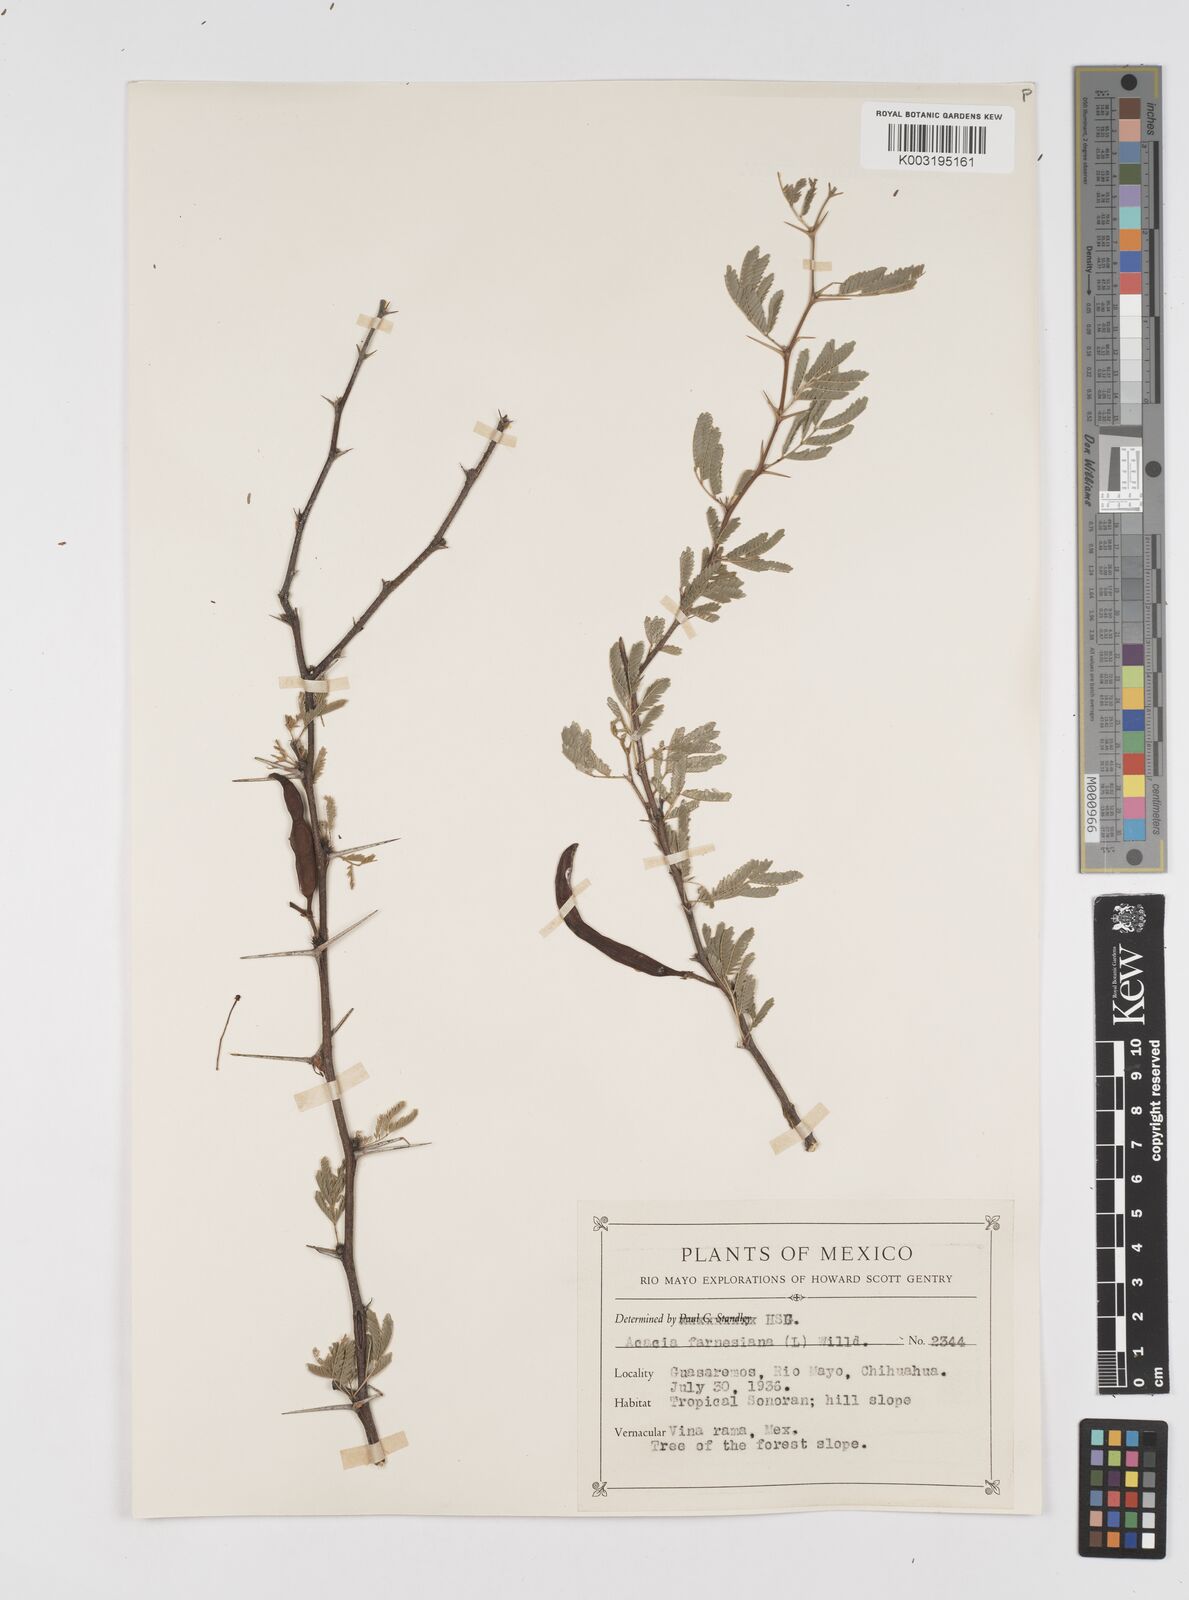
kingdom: Plantae
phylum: Tracheophyta
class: Magnoliopsida
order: Fabales
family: Fabaceae
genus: Vachellia
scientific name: Vachellia farnesiana
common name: Sweet acacia
